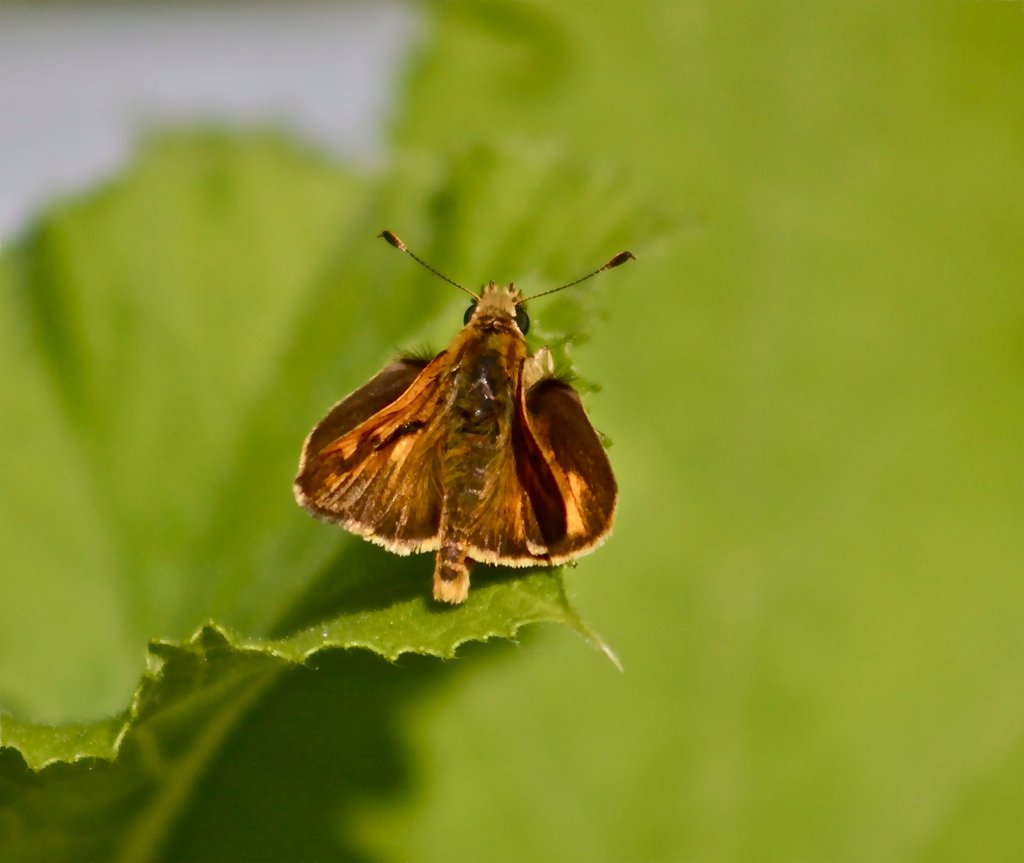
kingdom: Animalia
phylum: Arthropoda
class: Insecta
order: Lepidoptera
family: Hesperiidae
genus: Ochlodes
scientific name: Ochlodes sylvanoides
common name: Woodland Skipper
